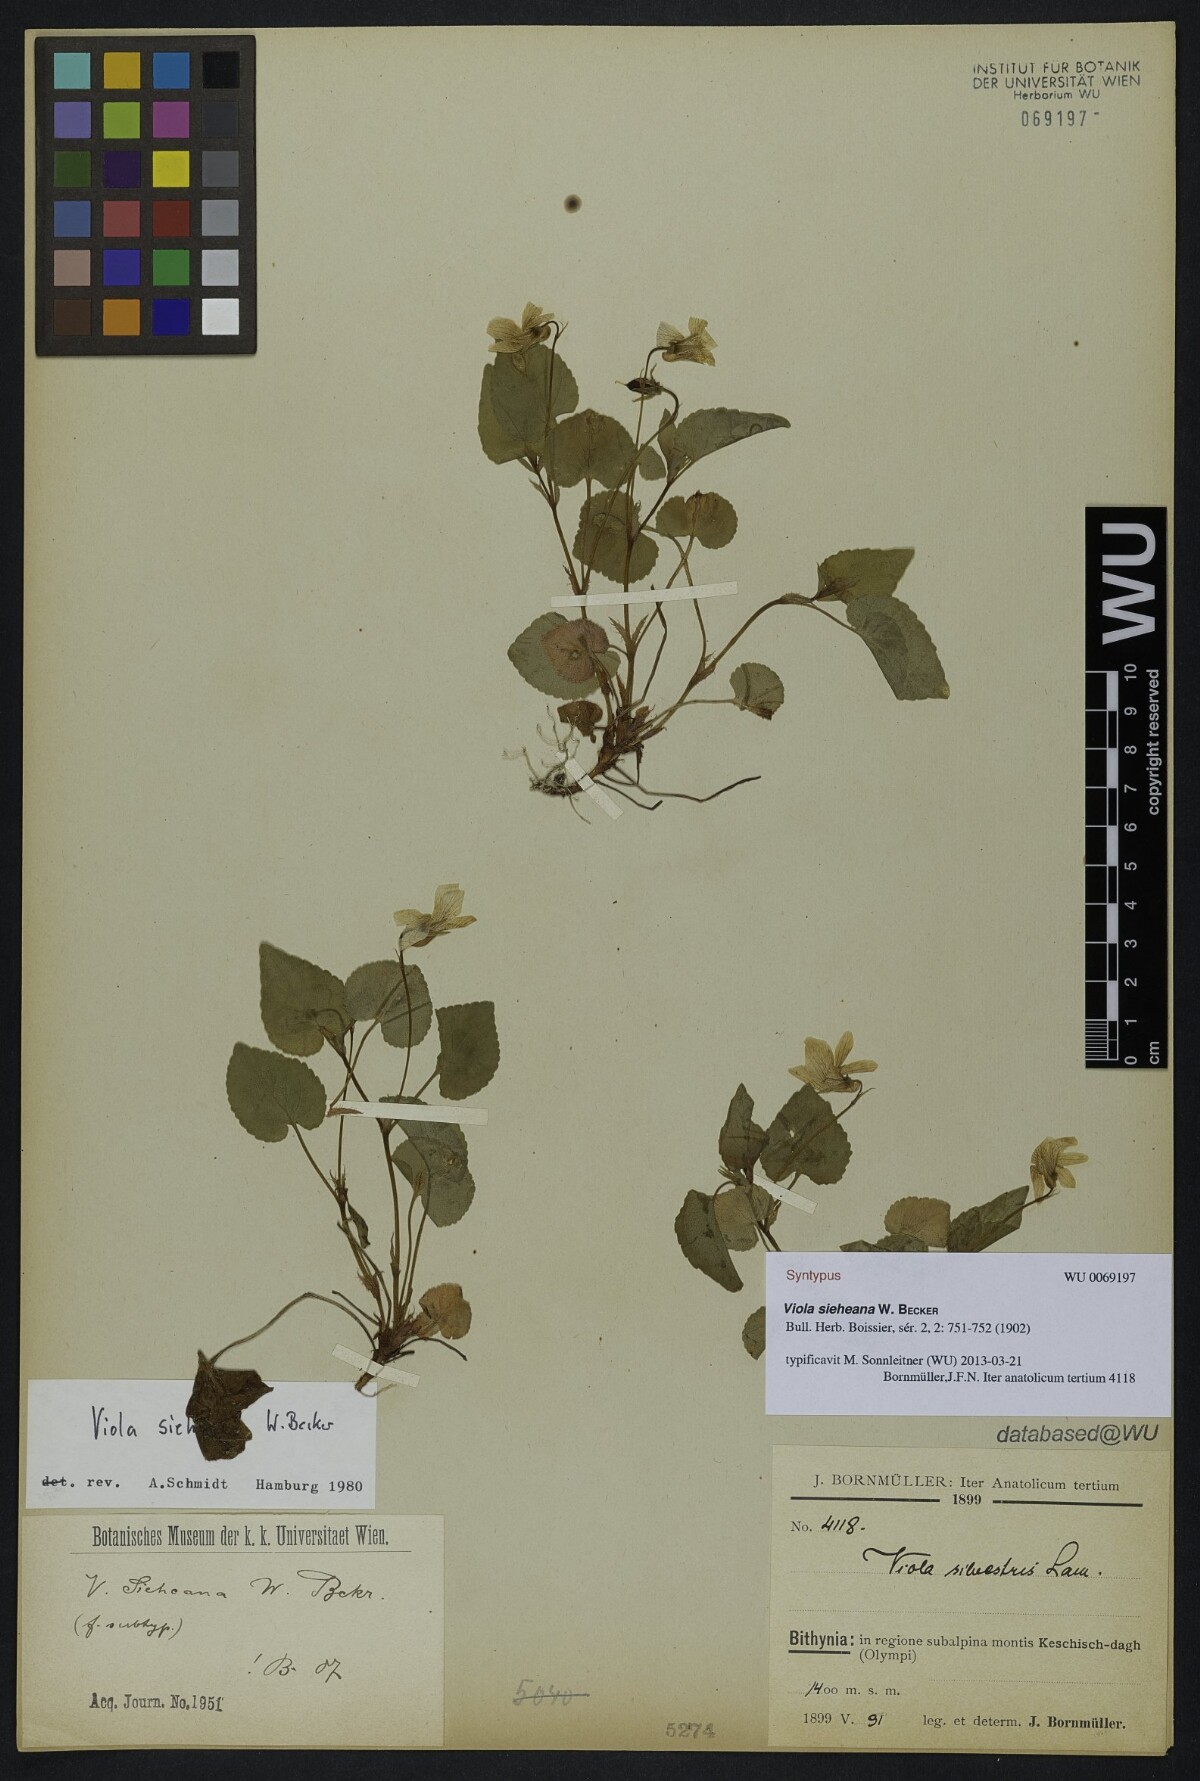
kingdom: Plantae
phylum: Tracheophyta
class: Magnoliopsida
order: Malpighiales
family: Violaceae
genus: Viola
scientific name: Viola sieheana
